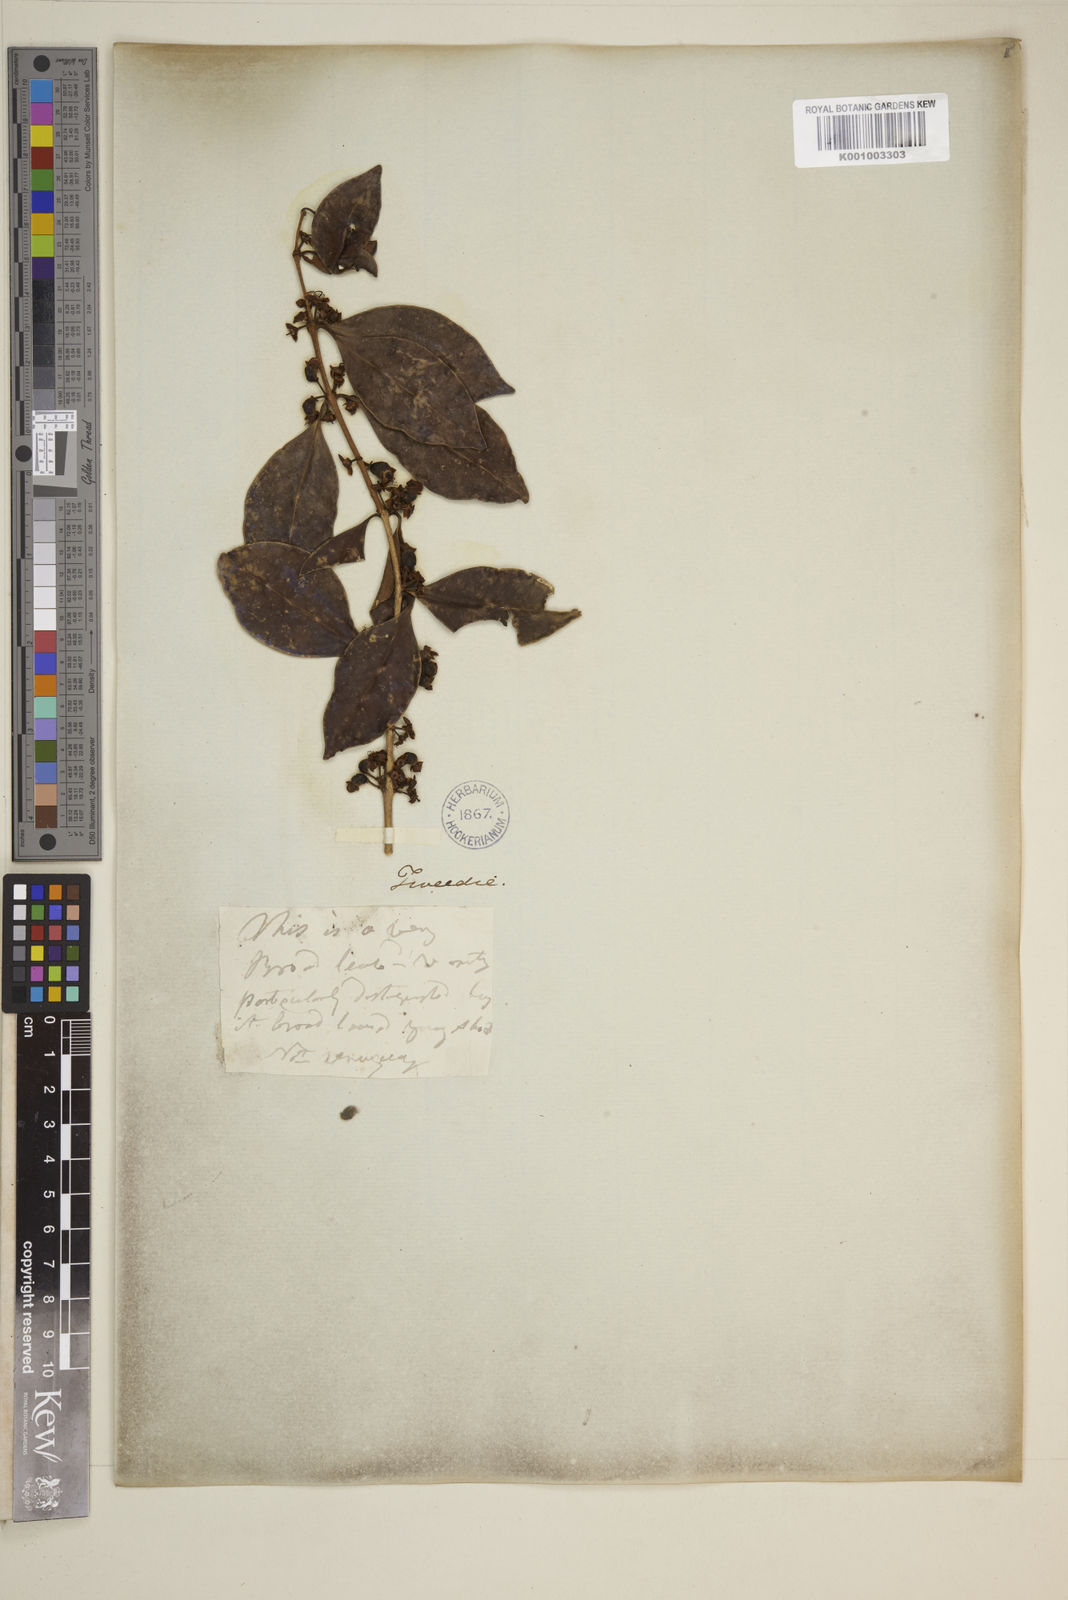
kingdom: Plantae
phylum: Tracheophyta
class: Magnoliopsida
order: Myrtales
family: Myrtaceae
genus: Eugenia
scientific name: Eugenia
